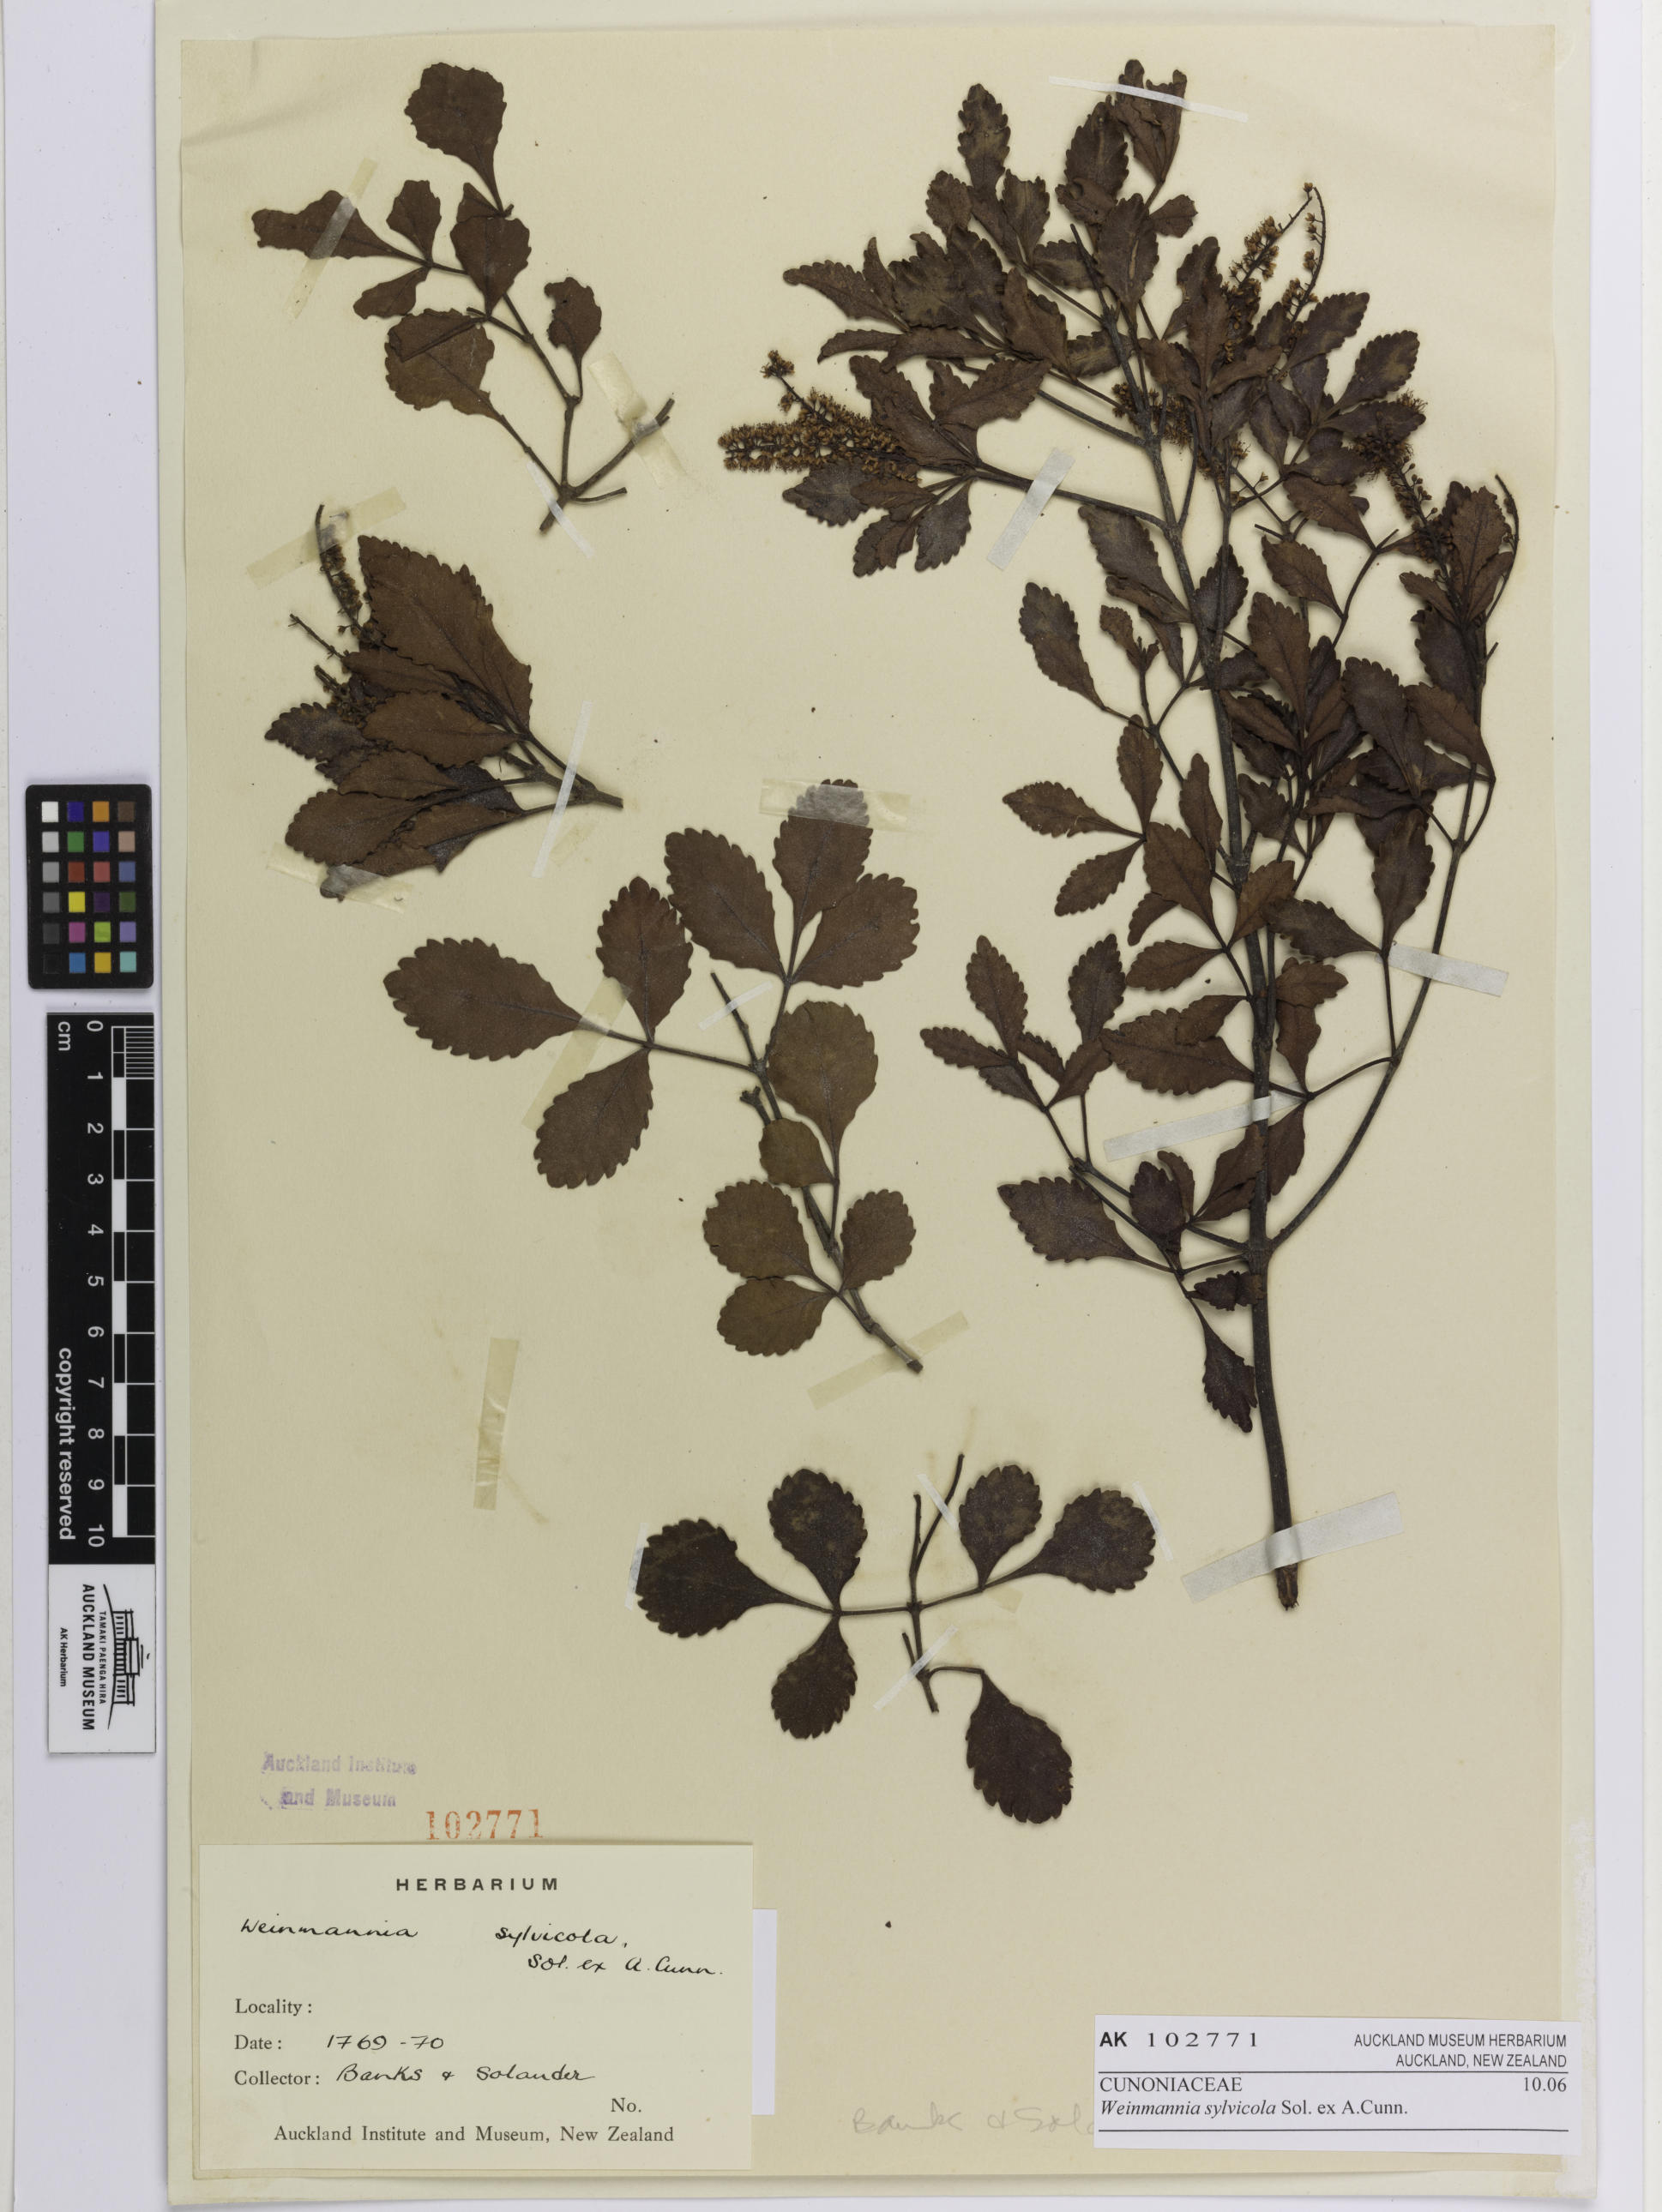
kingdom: Plantae
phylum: Tracheophyta
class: Magnoliopsida
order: Oxalidales
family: Cunoniaceae
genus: Pterophylla
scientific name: Pterophylla sylvicola
